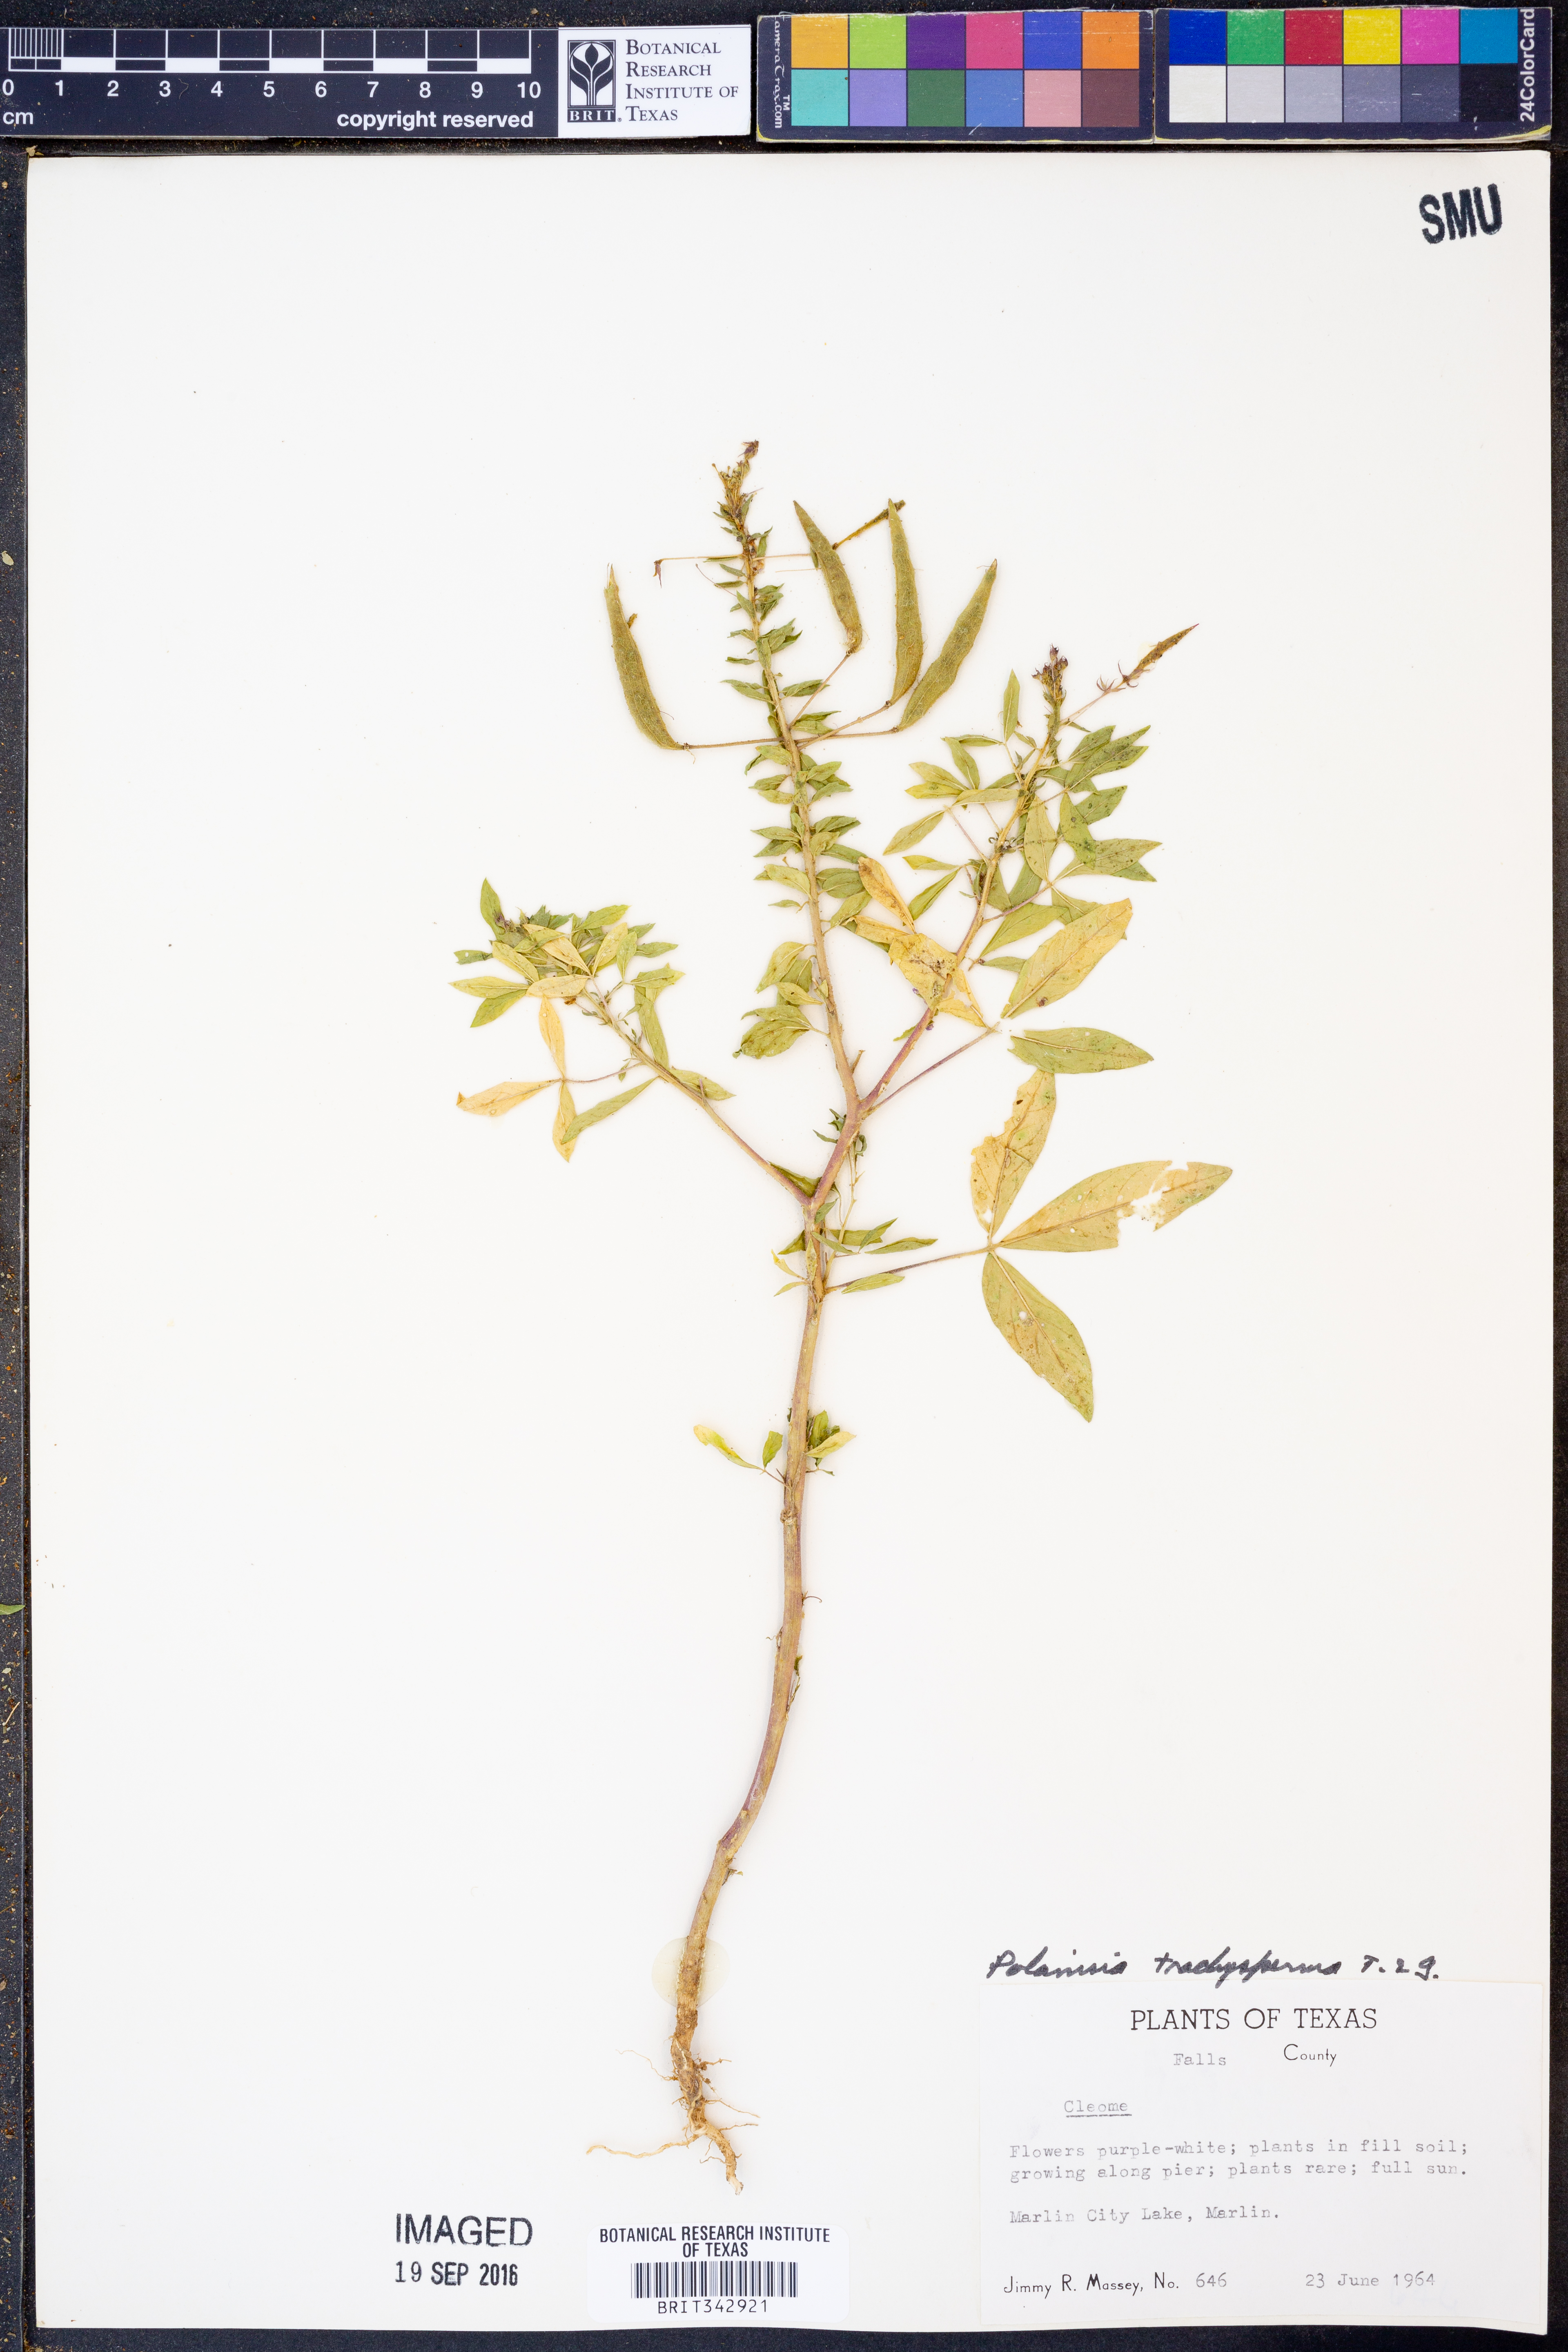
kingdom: Plantae
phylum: Tracheophyta
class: Magnoliopsida
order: Brassicales
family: Cleomaceae
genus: Polanisia
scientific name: Polanisia trachysperma
